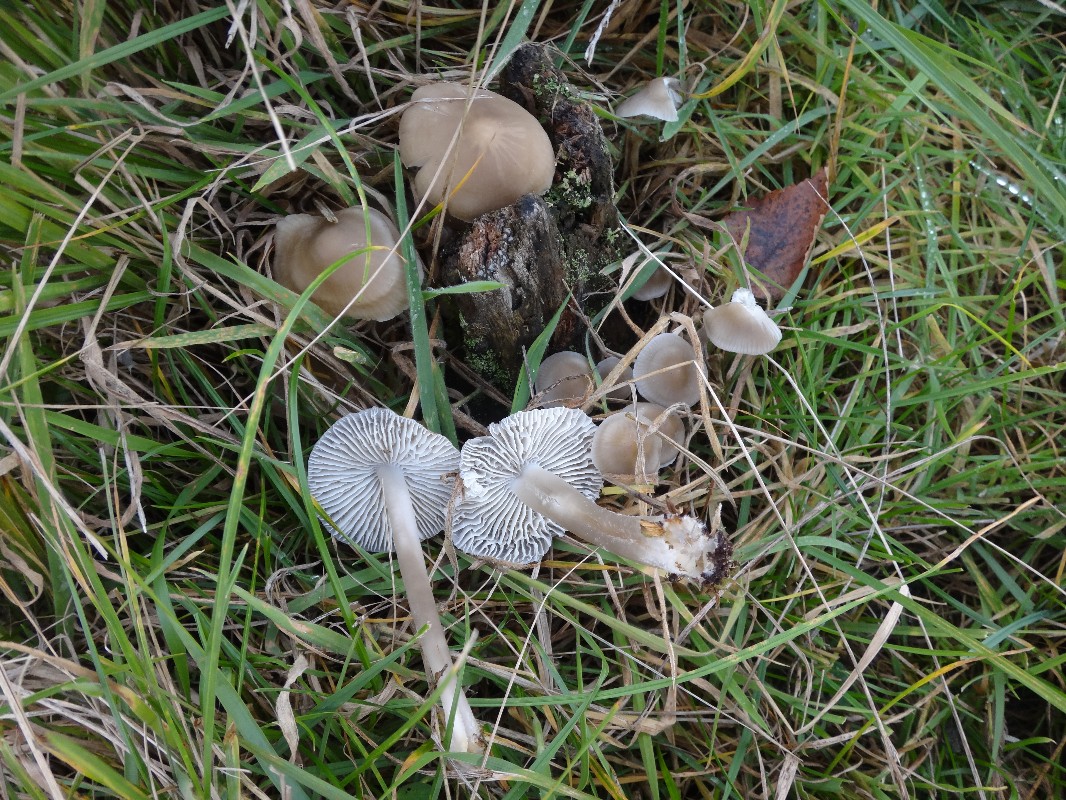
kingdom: Fungi
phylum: Basidiomycota
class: Agaricomycetes
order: Agaricales
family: Mycenaceae
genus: Mycena
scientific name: Mycena galericulata
